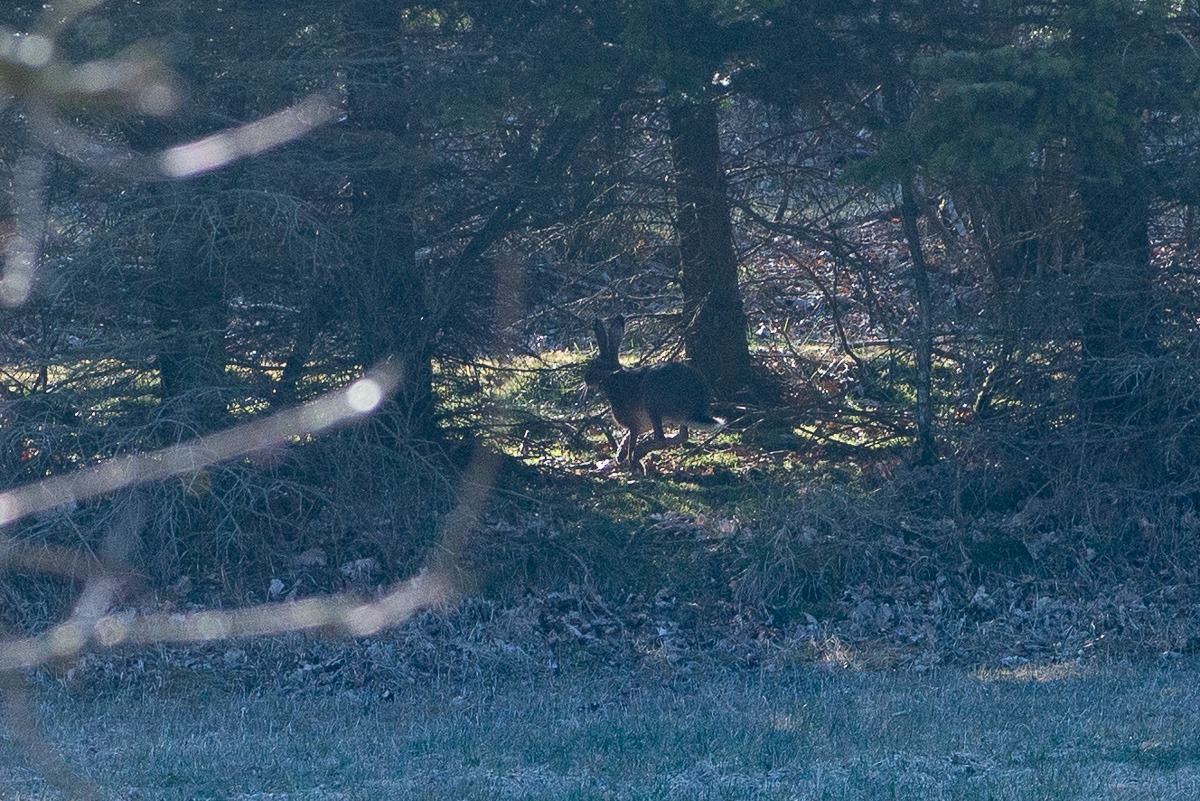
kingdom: Animalia
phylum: Chordata
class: Mammalia
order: Lagomorpha
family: Leporidae
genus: Lepus
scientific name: Lepus europaeus
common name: Hare
